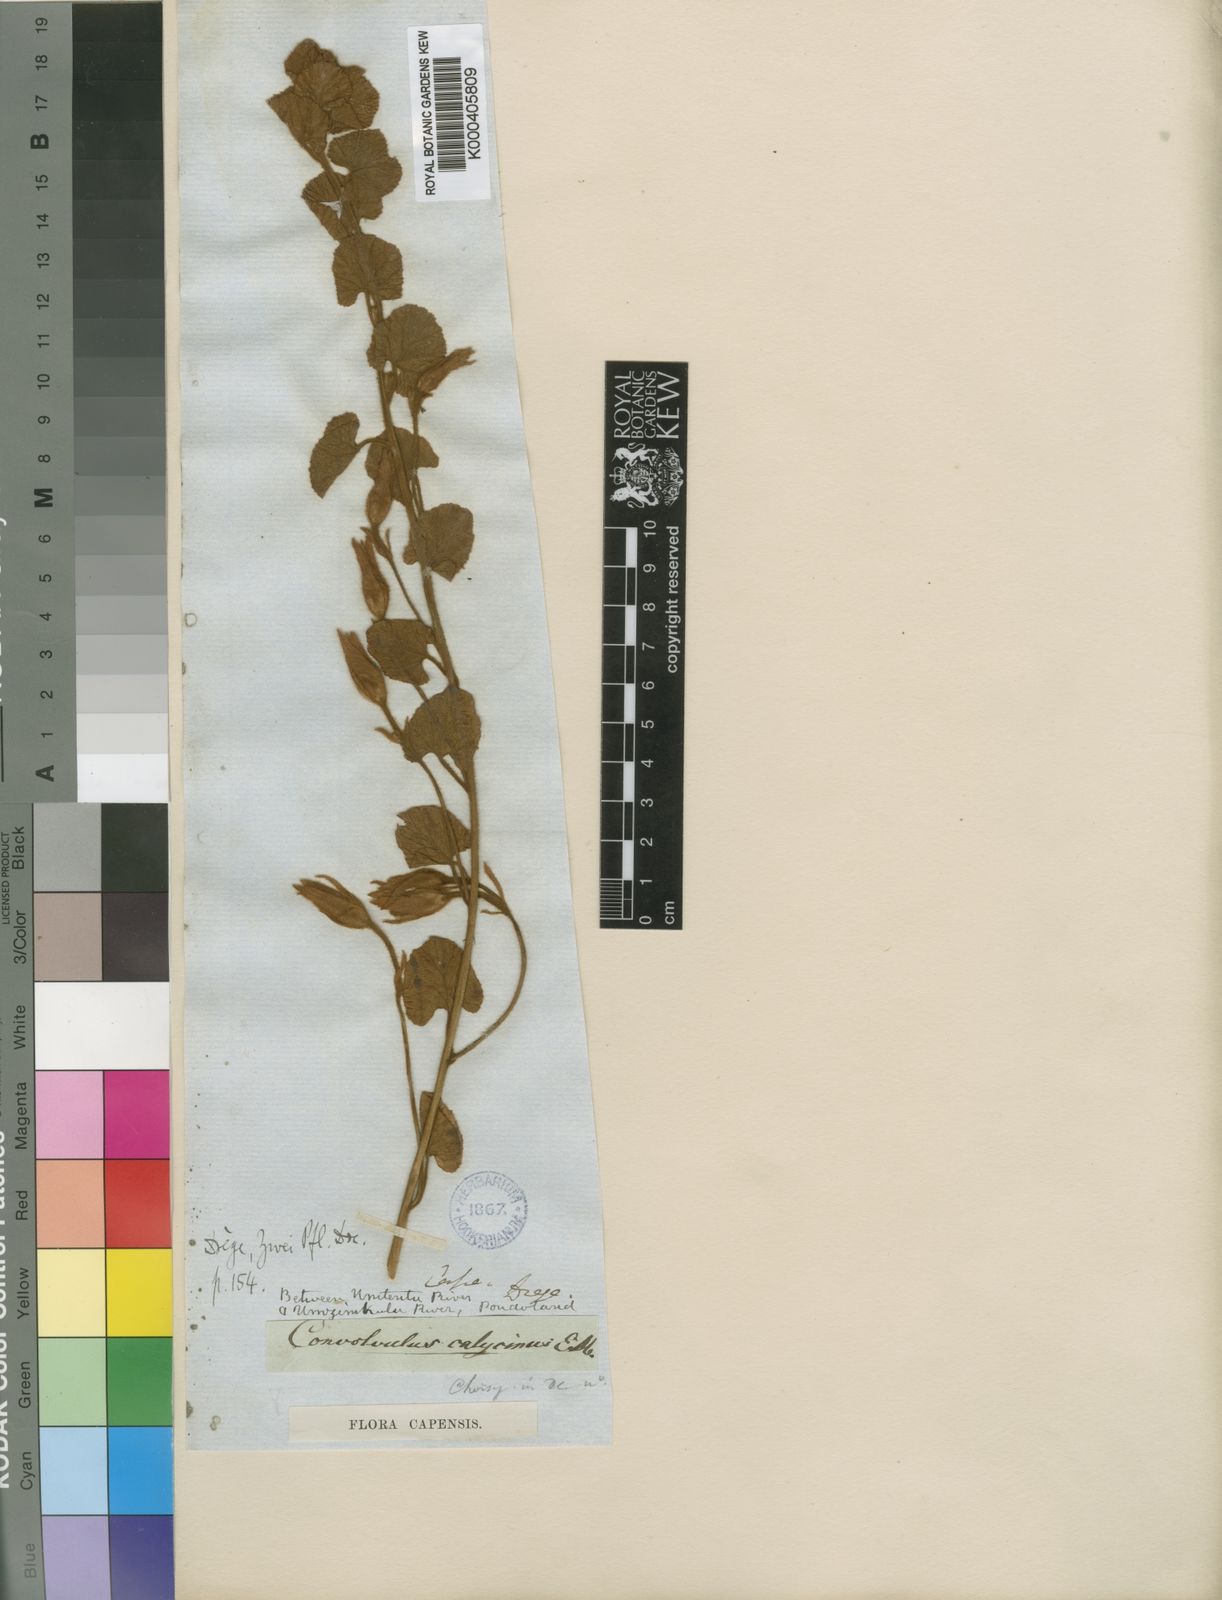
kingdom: Plantae
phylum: Tracheophyta
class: Magnoliopsida
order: Solanales
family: Convolvulaceae
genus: Convolvulus
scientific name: Convolvulus natalensis
